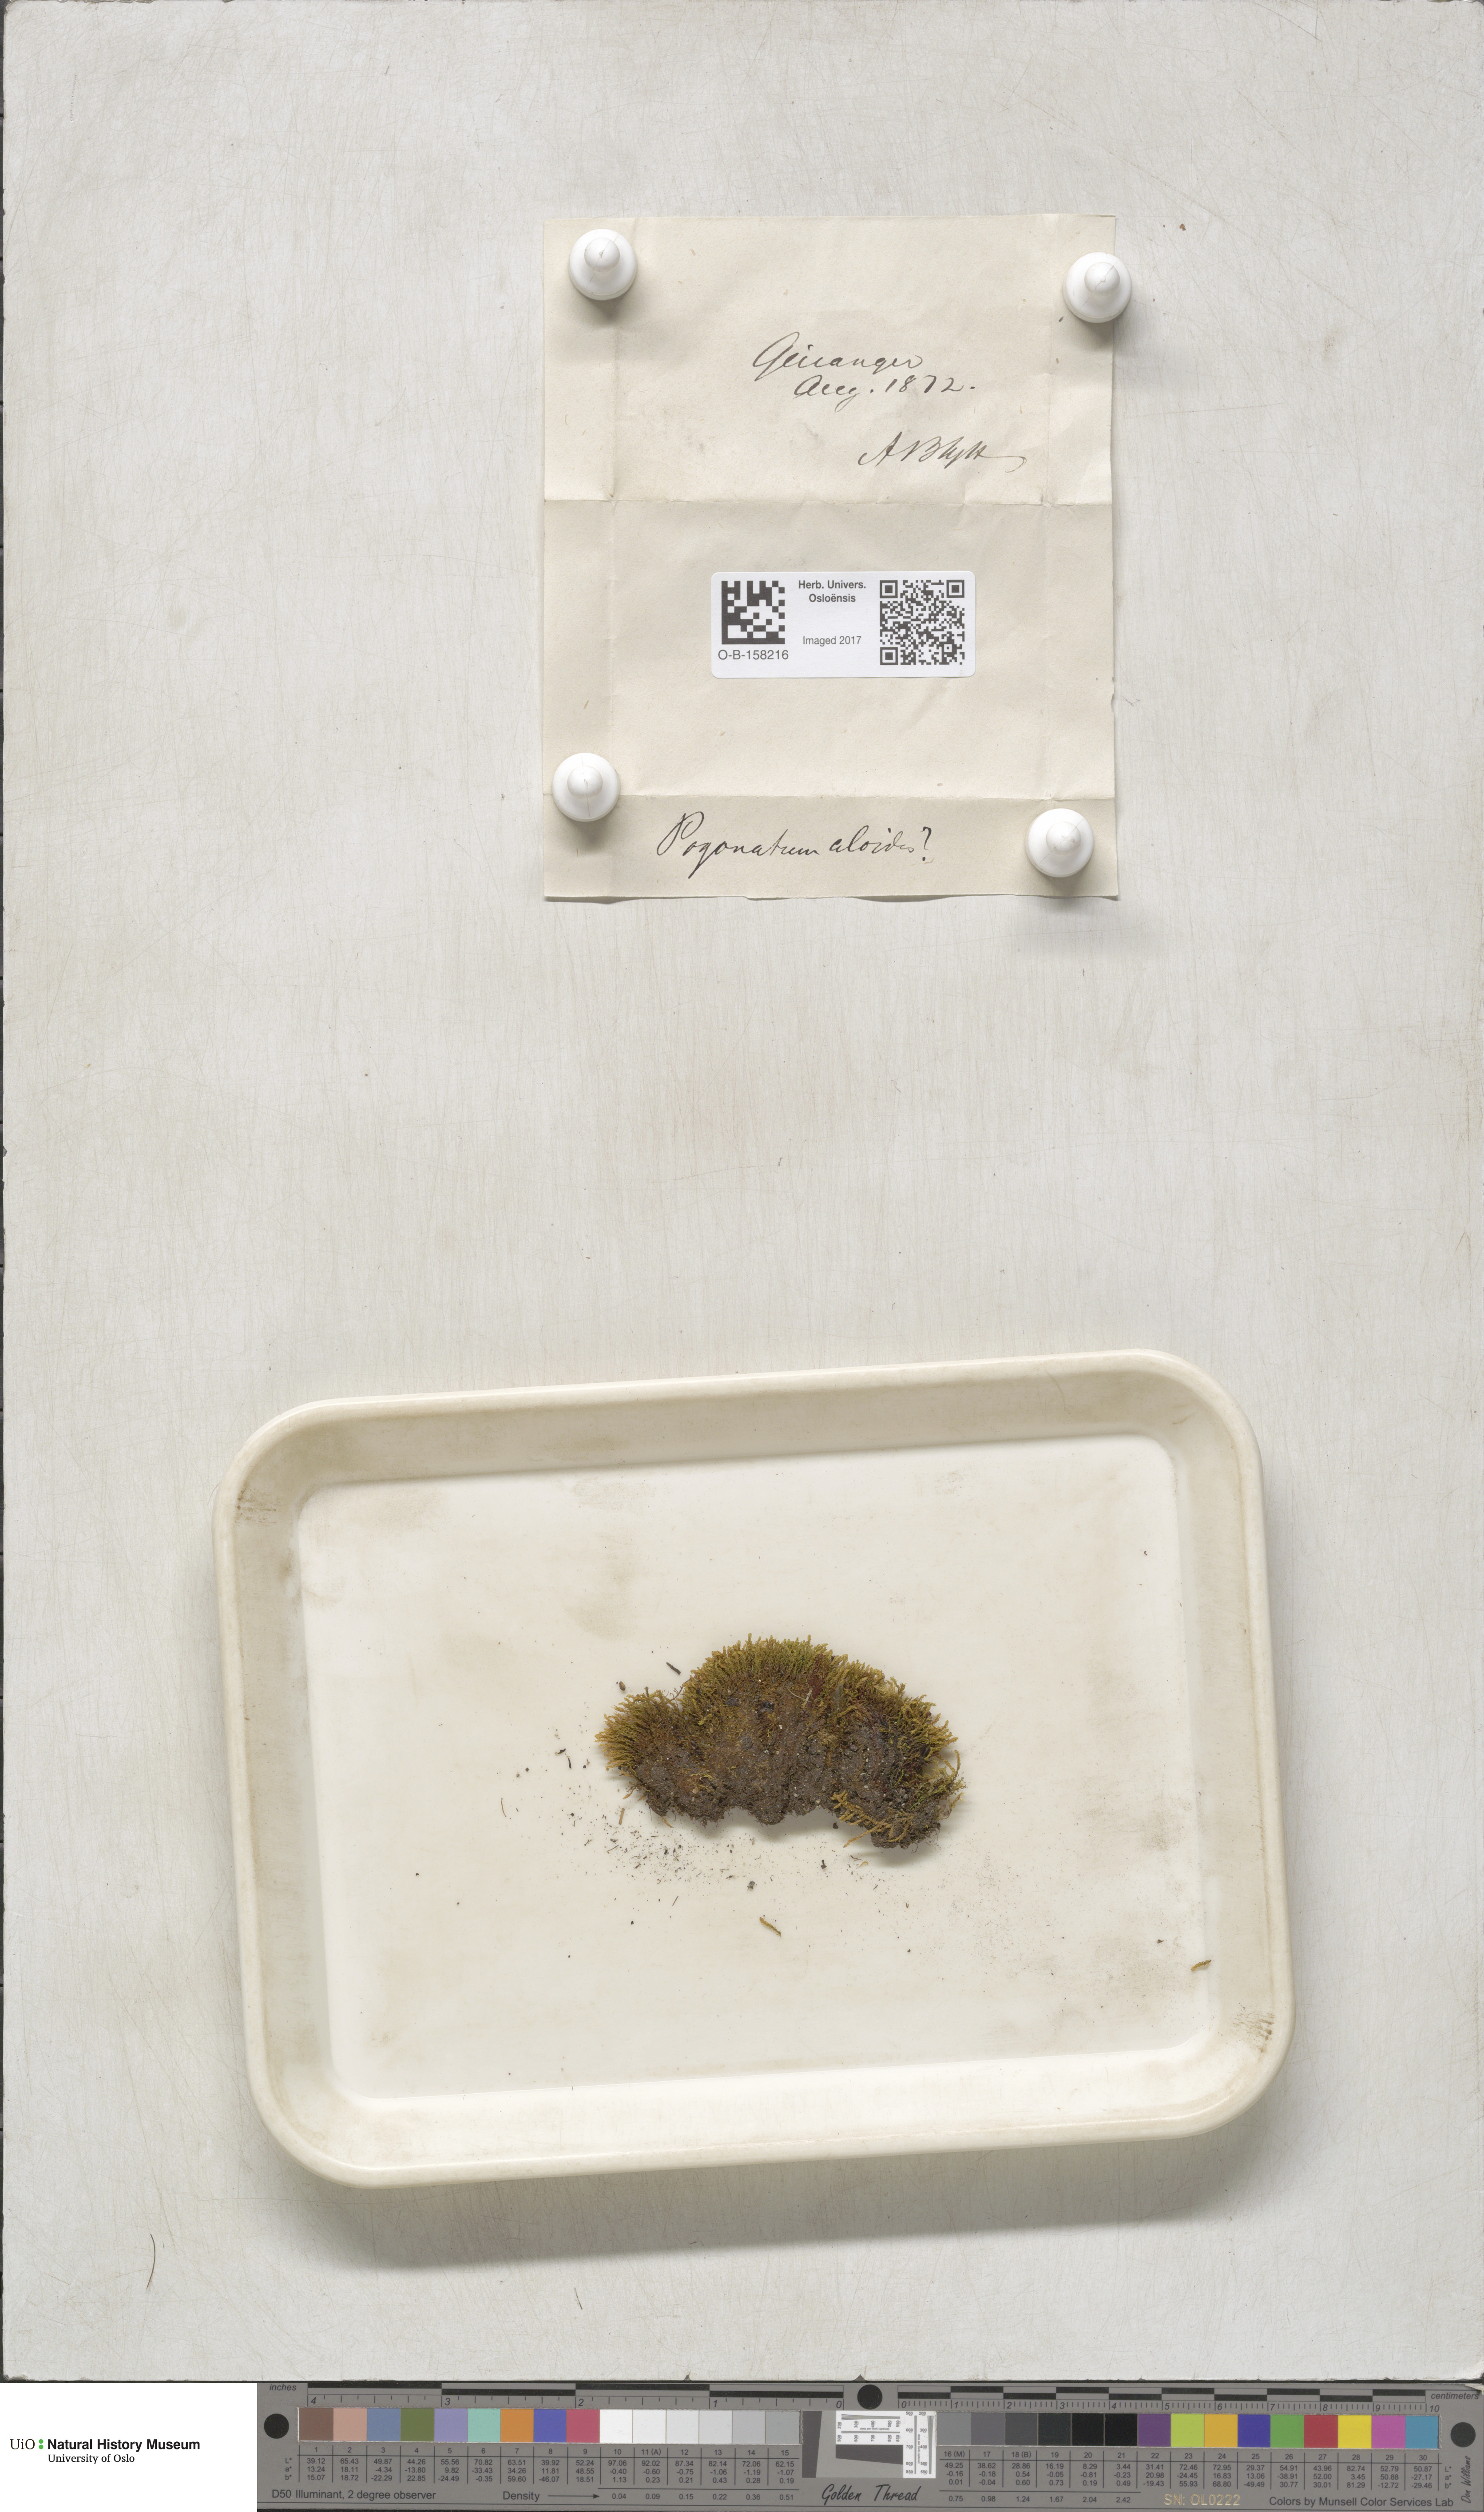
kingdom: Plantae
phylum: Bryophyta
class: Polytrichopsida
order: Polytrichales
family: Polytrichaceae
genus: Pogonatum
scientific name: Pogonatum aloides
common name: Aloe haircap
